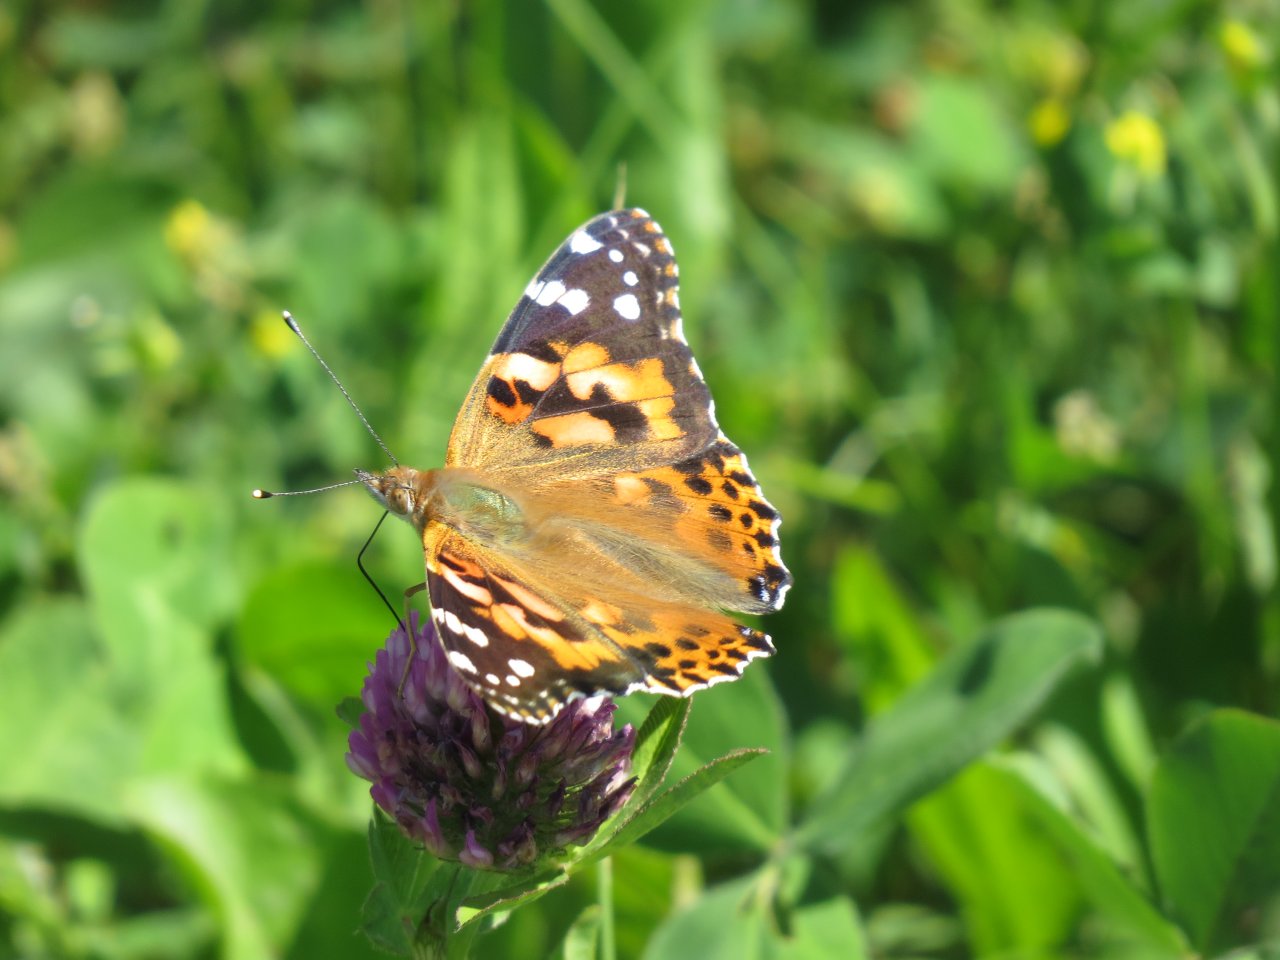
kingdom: Animalia
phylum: Arthropoda
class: Insecta
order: Lepidoptera
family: Nymphalidae
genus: Vanessa
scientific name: Vanessa cardui
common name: Painted Lady
